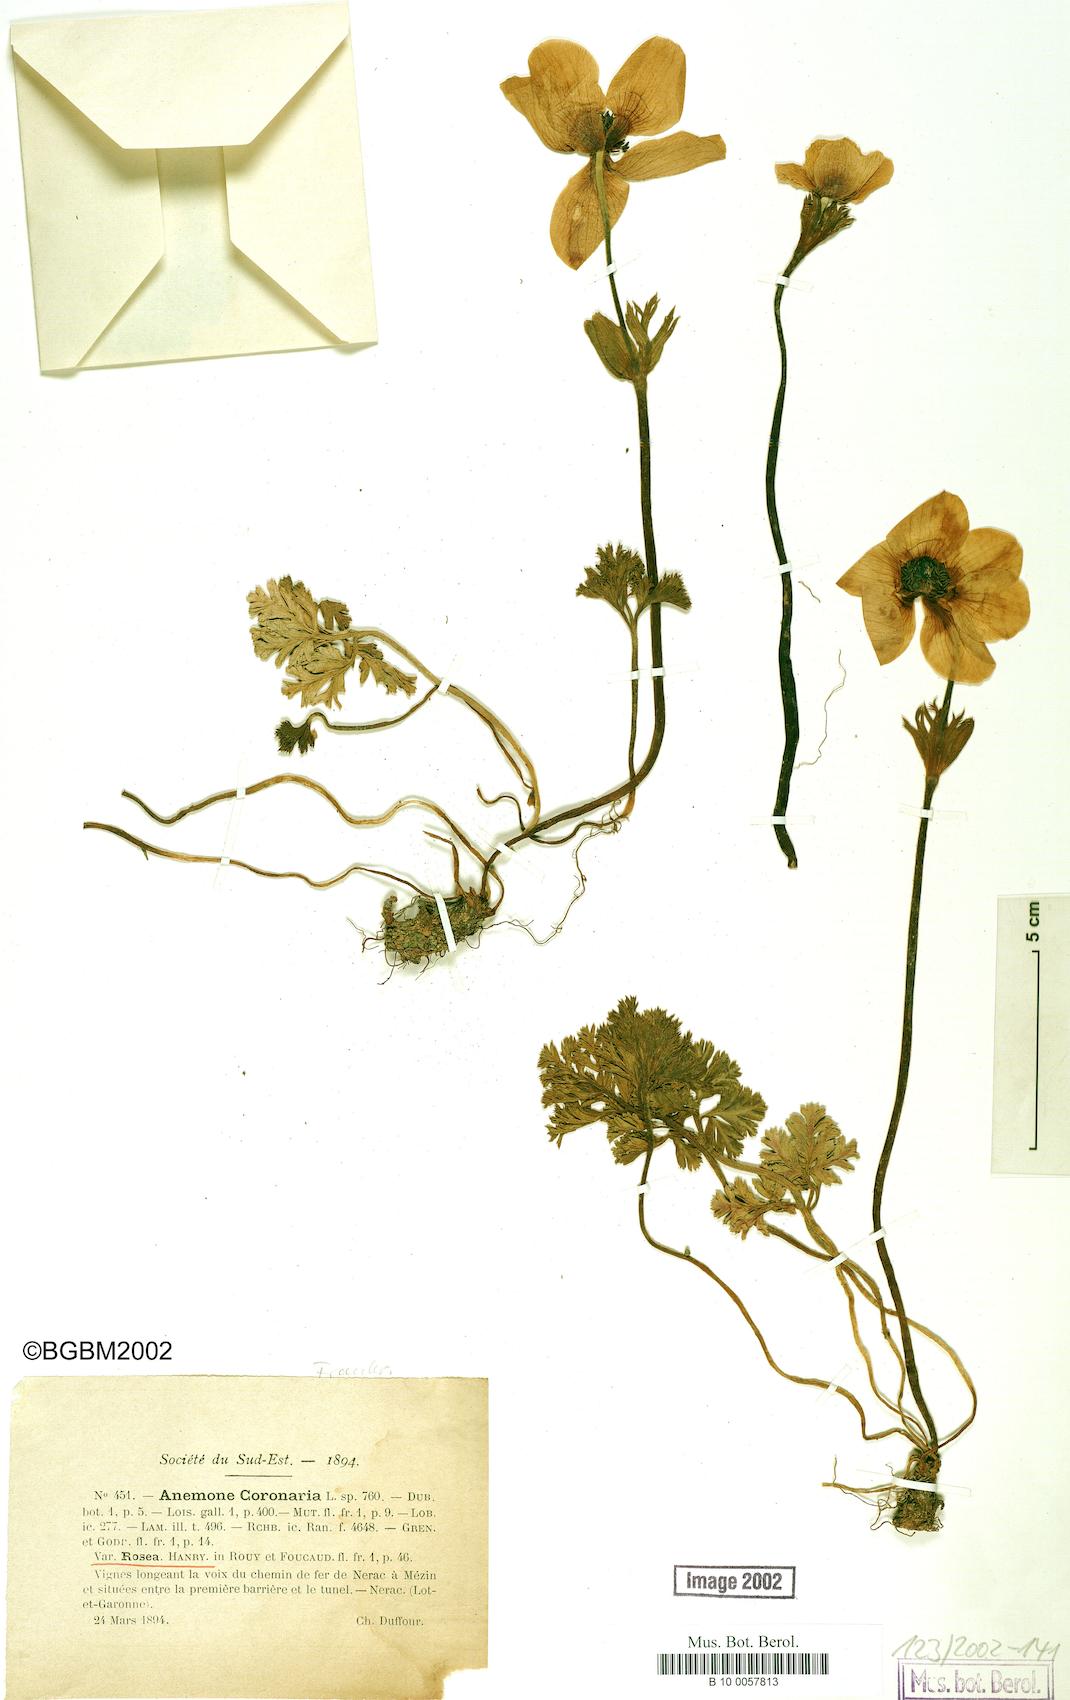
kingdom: Plantae
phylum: Tracheophyta
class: Magnoliopsida
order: Ranunculales
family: Ranunculaceae
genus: Anemone
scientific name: Anemone coronaria
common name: Poppy anemone
